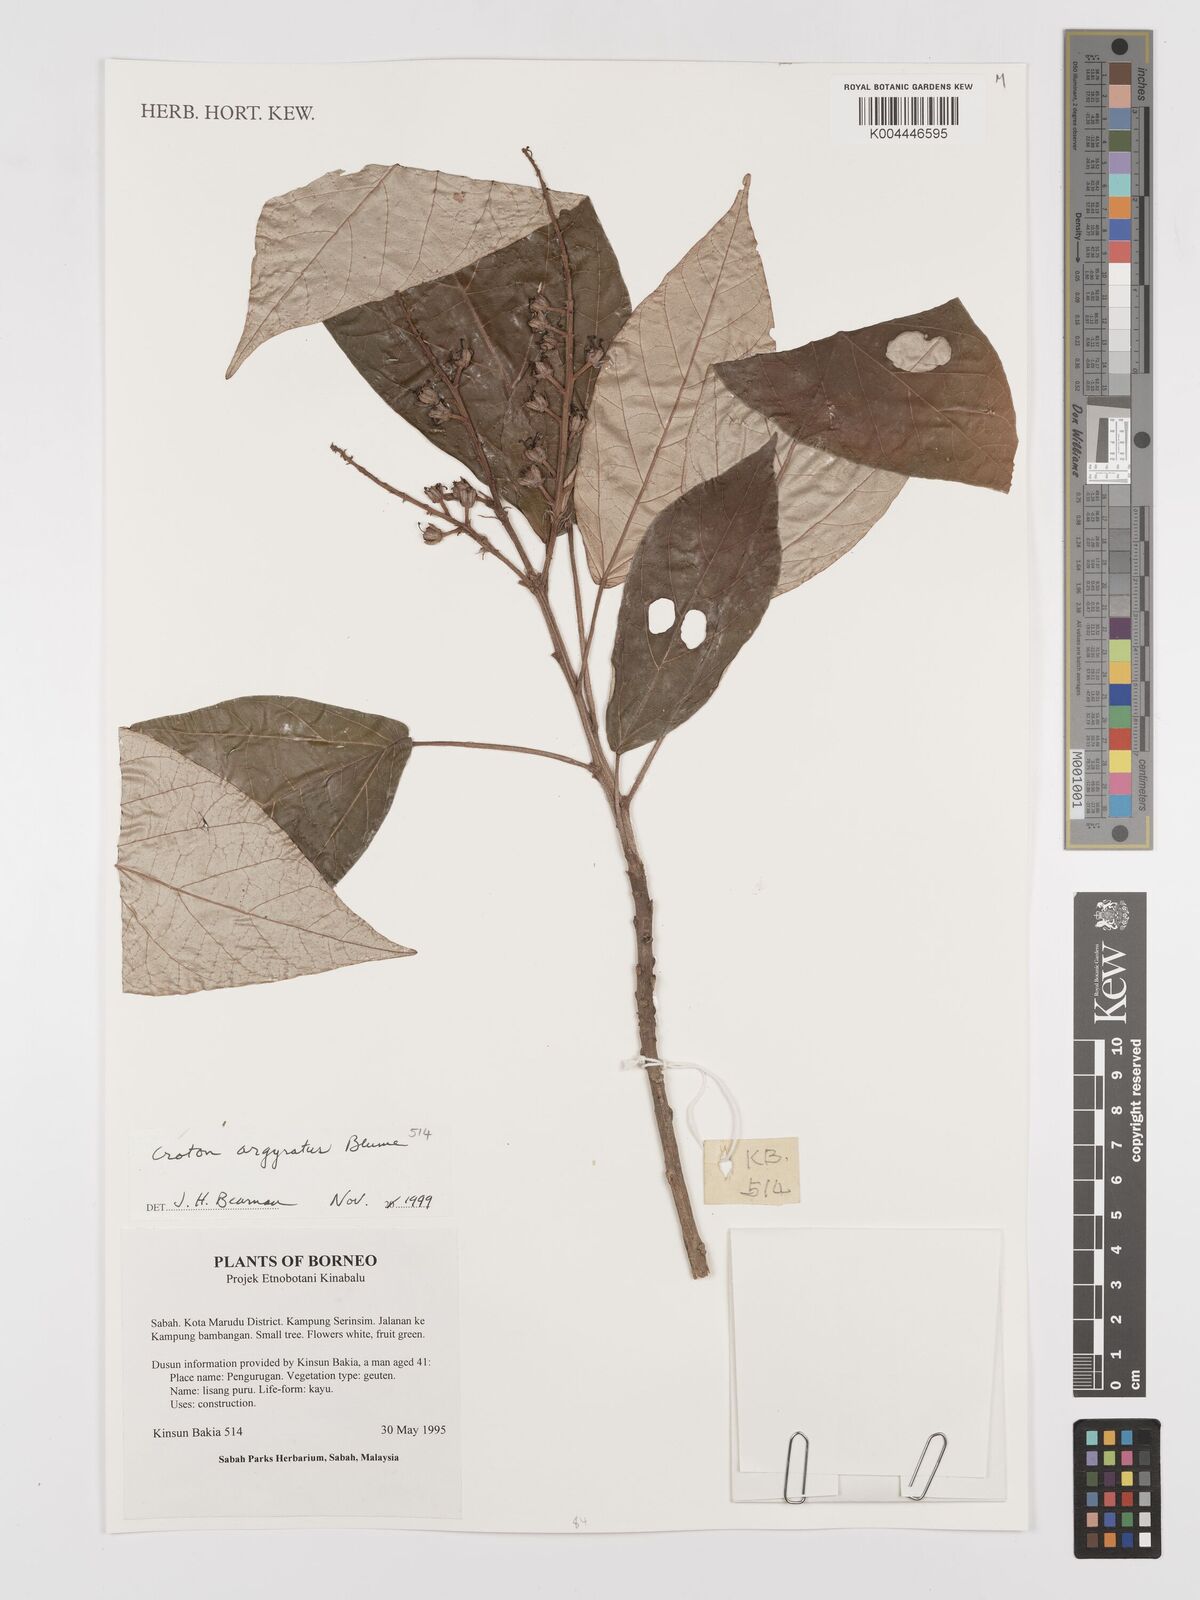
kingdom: Plantae
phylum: Tracheophyta
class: Magnoliopsida
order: Malpighiales
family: Euphorbiaceae
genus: Croton
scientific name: Croton argyratus
